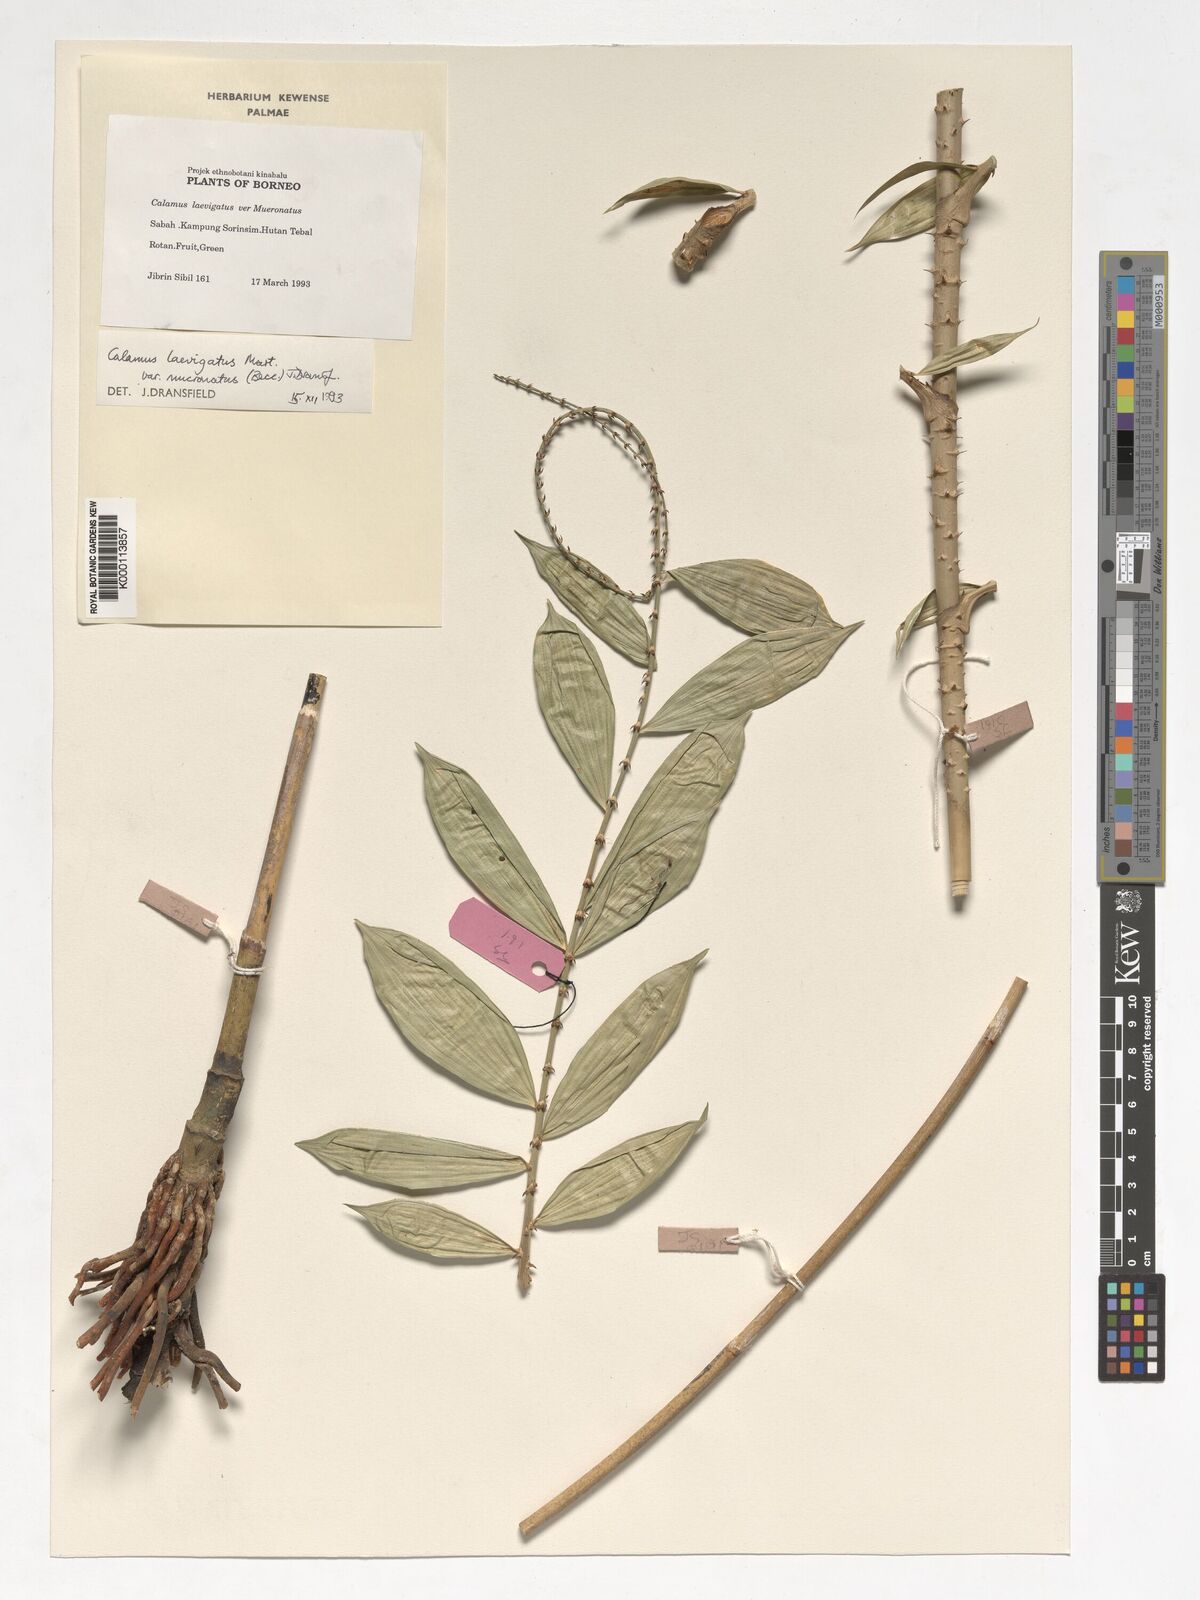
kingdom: Plantae
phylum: Tracheophyta
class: Liliopsida
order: Arecales
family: Arecaceae
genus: Calamus
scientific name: Calamus plicatus
